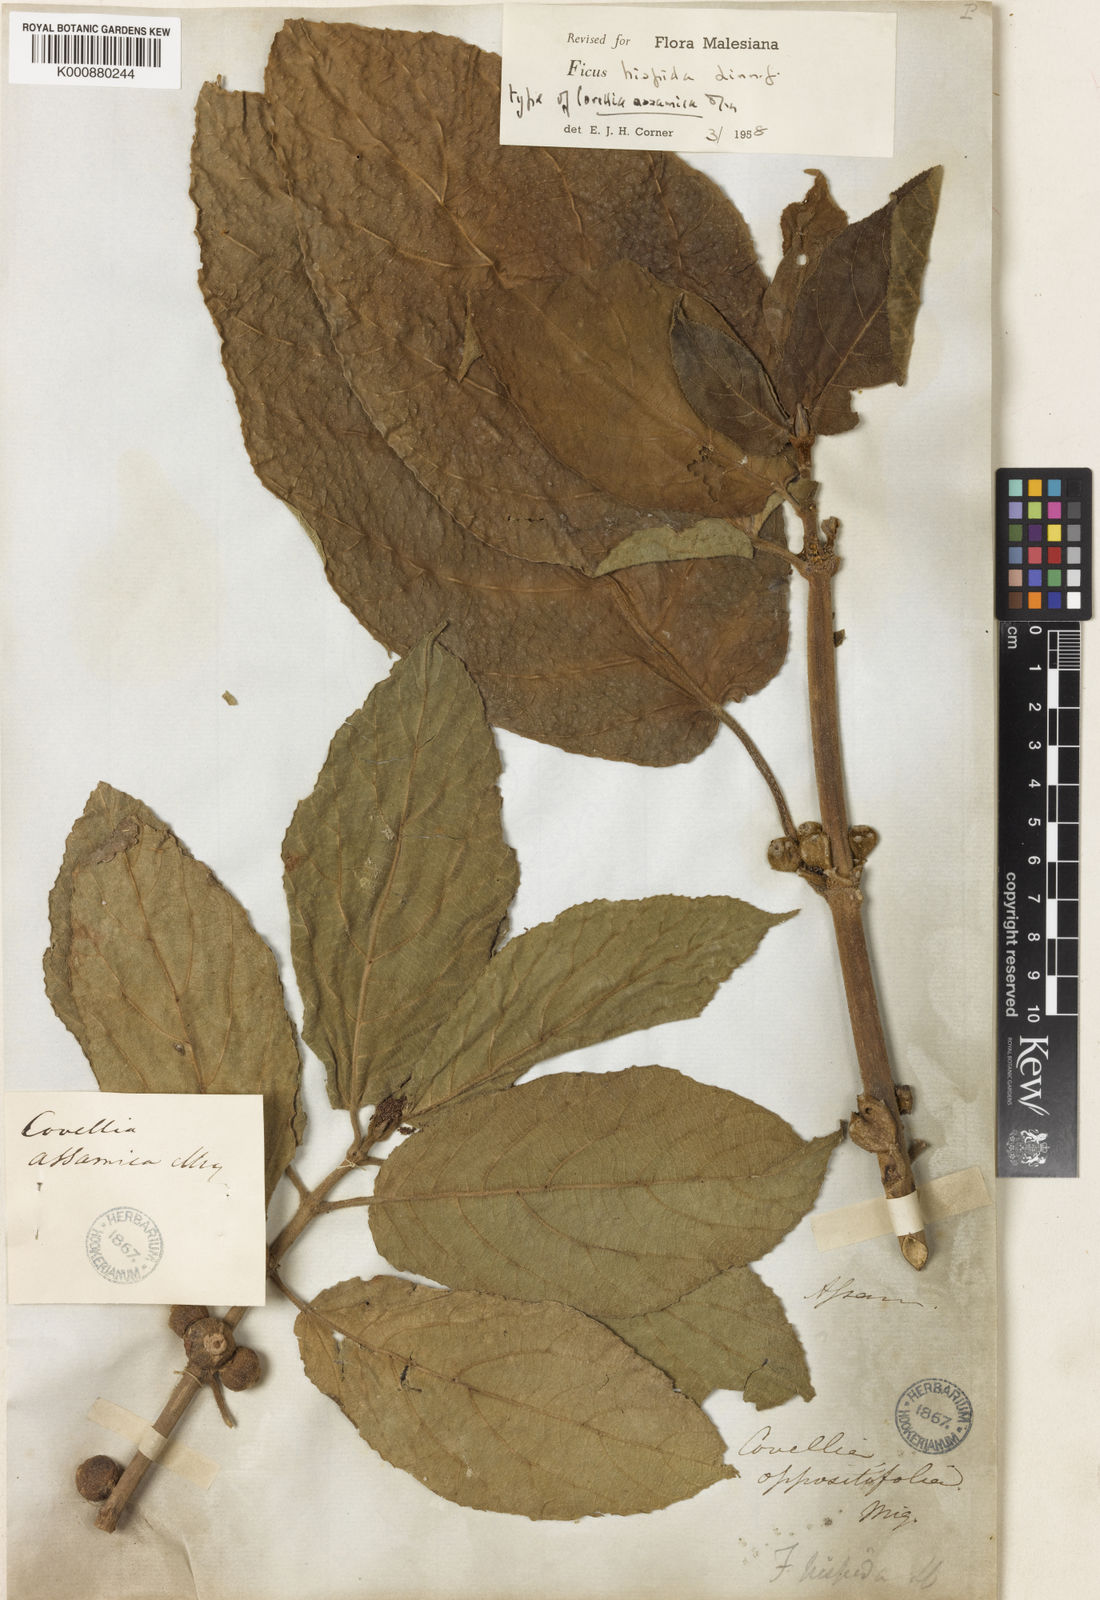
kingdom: Plantae
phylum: Tracheophyta
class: Magnoliopsida
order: Rosales
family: Moraceae
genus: Ficus
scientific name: Ficus hispida
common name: Hairy fig
